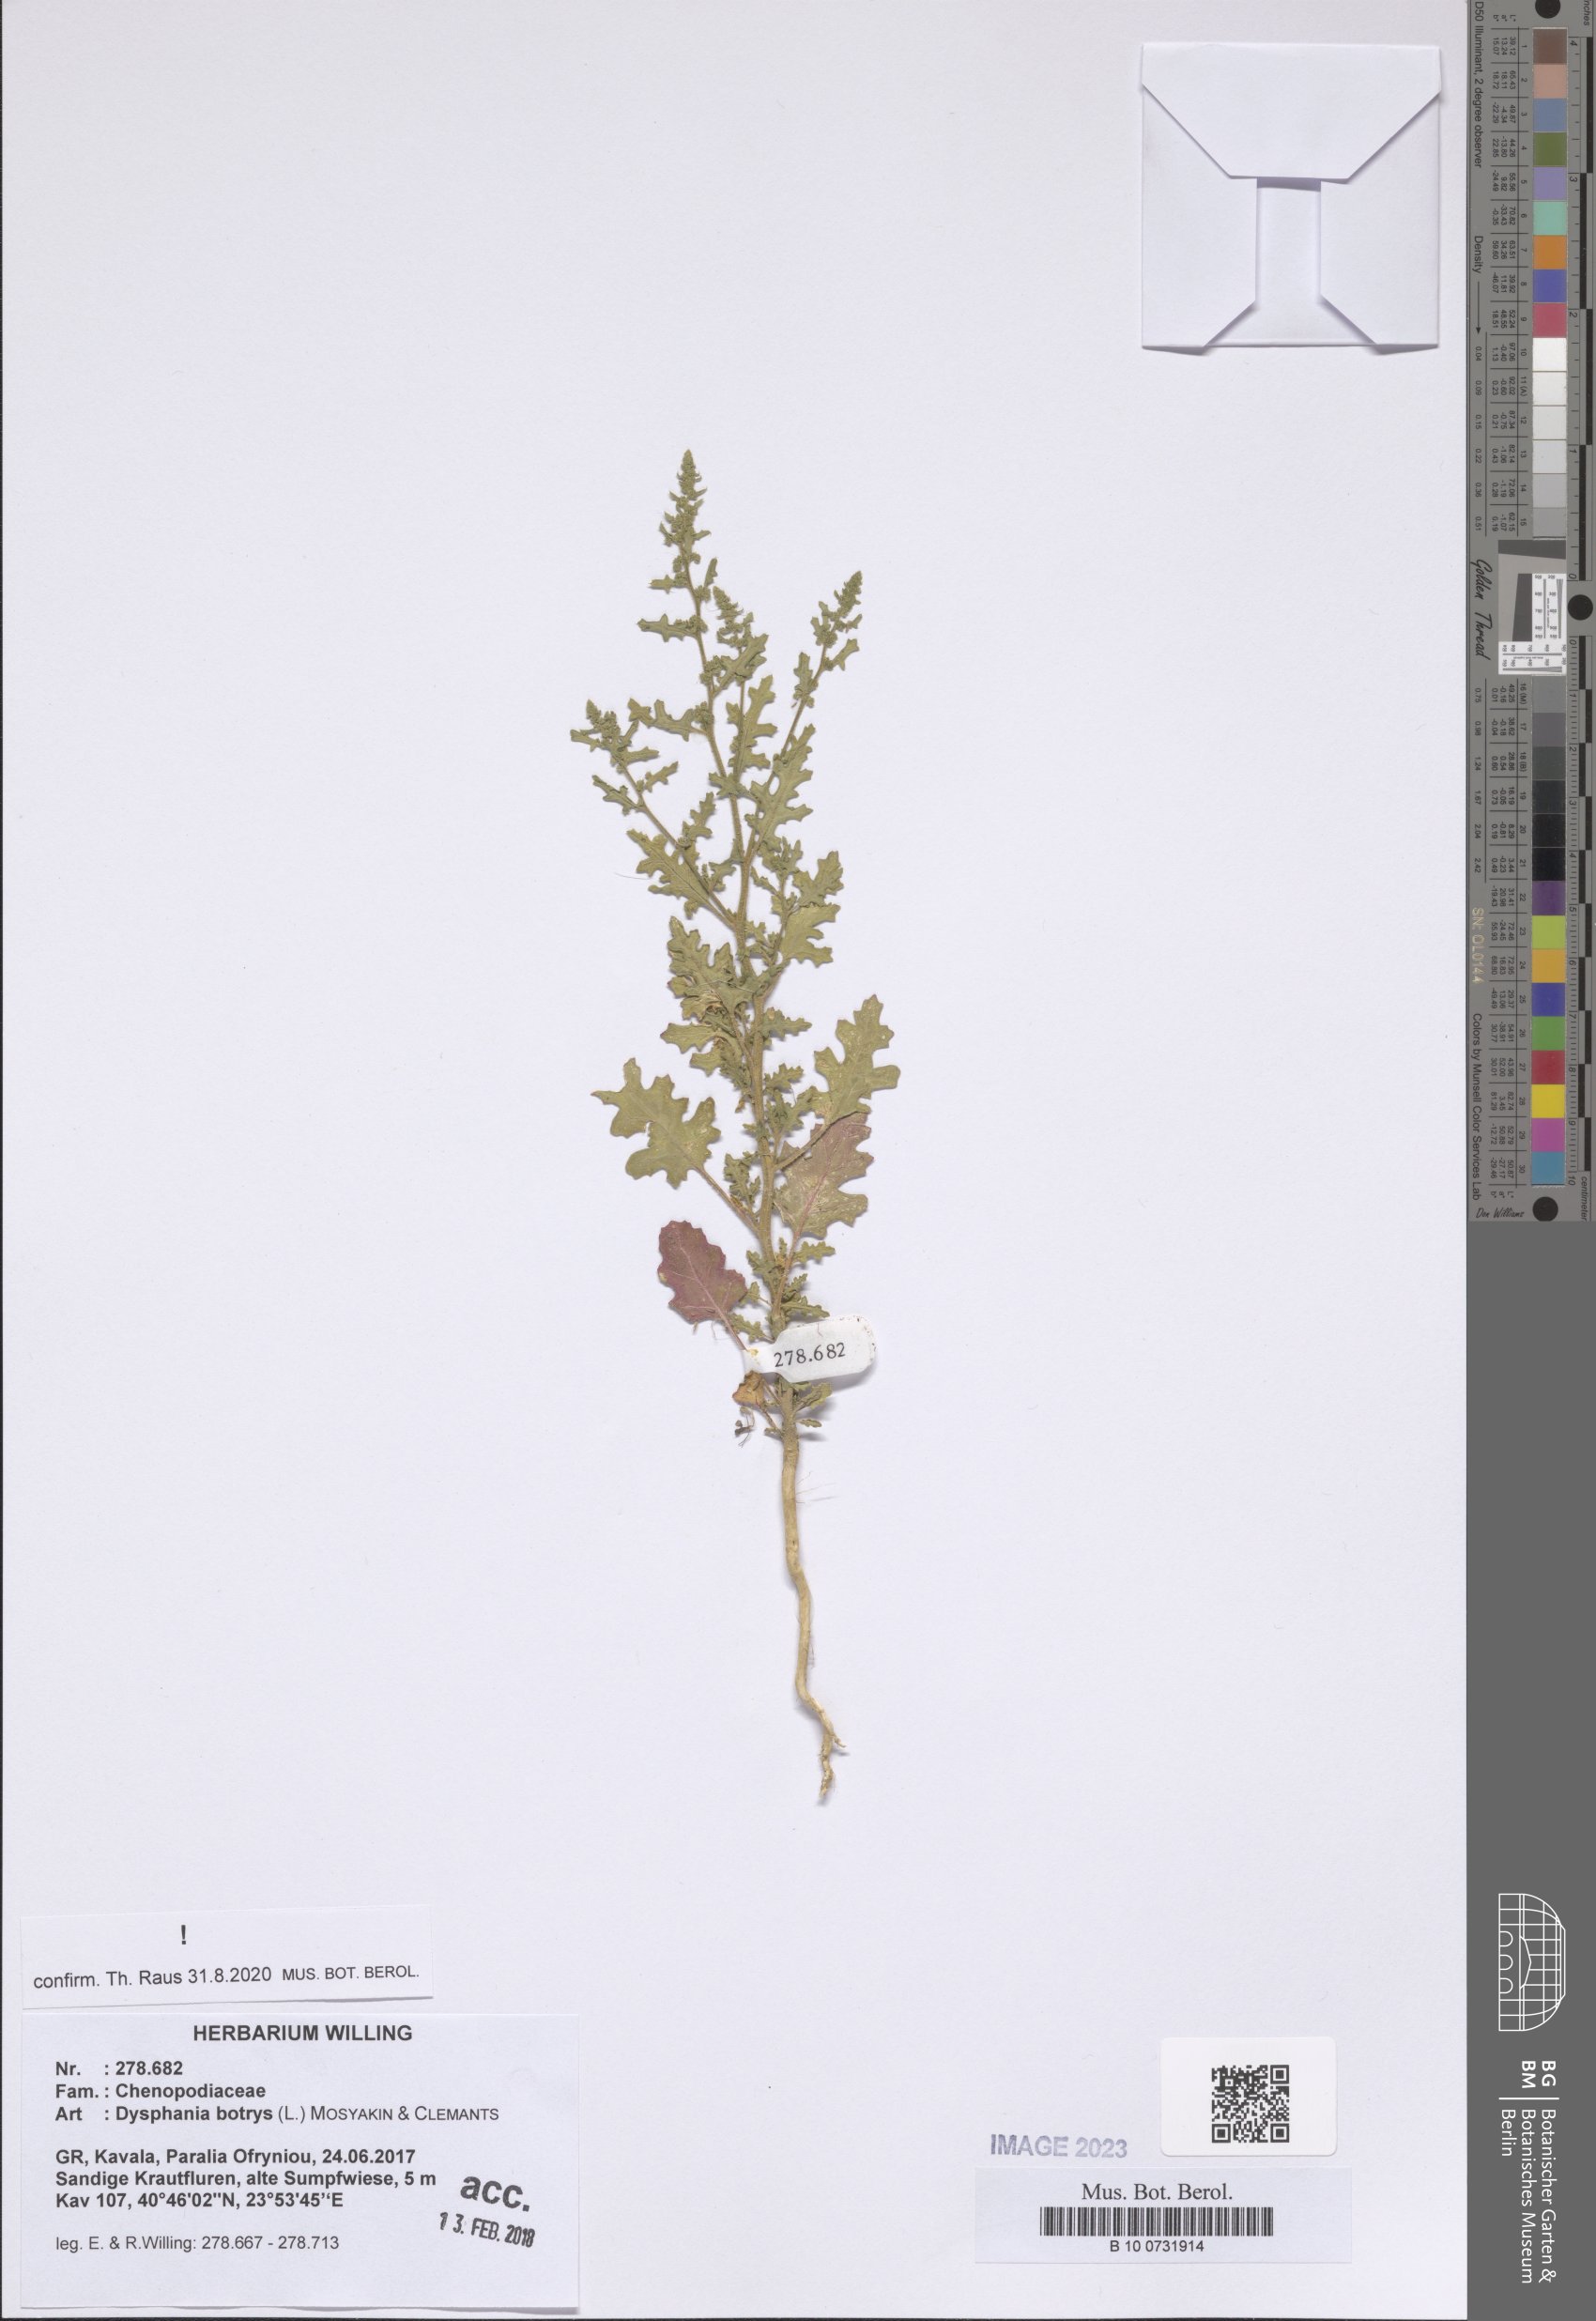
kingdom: Plantae
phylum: Tracheophyta
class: Magnoliopsida
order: Caryophyllales
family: Amaranthaceae
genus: Dysphania
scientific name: Dysphania botrys
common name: Feather-geranium
